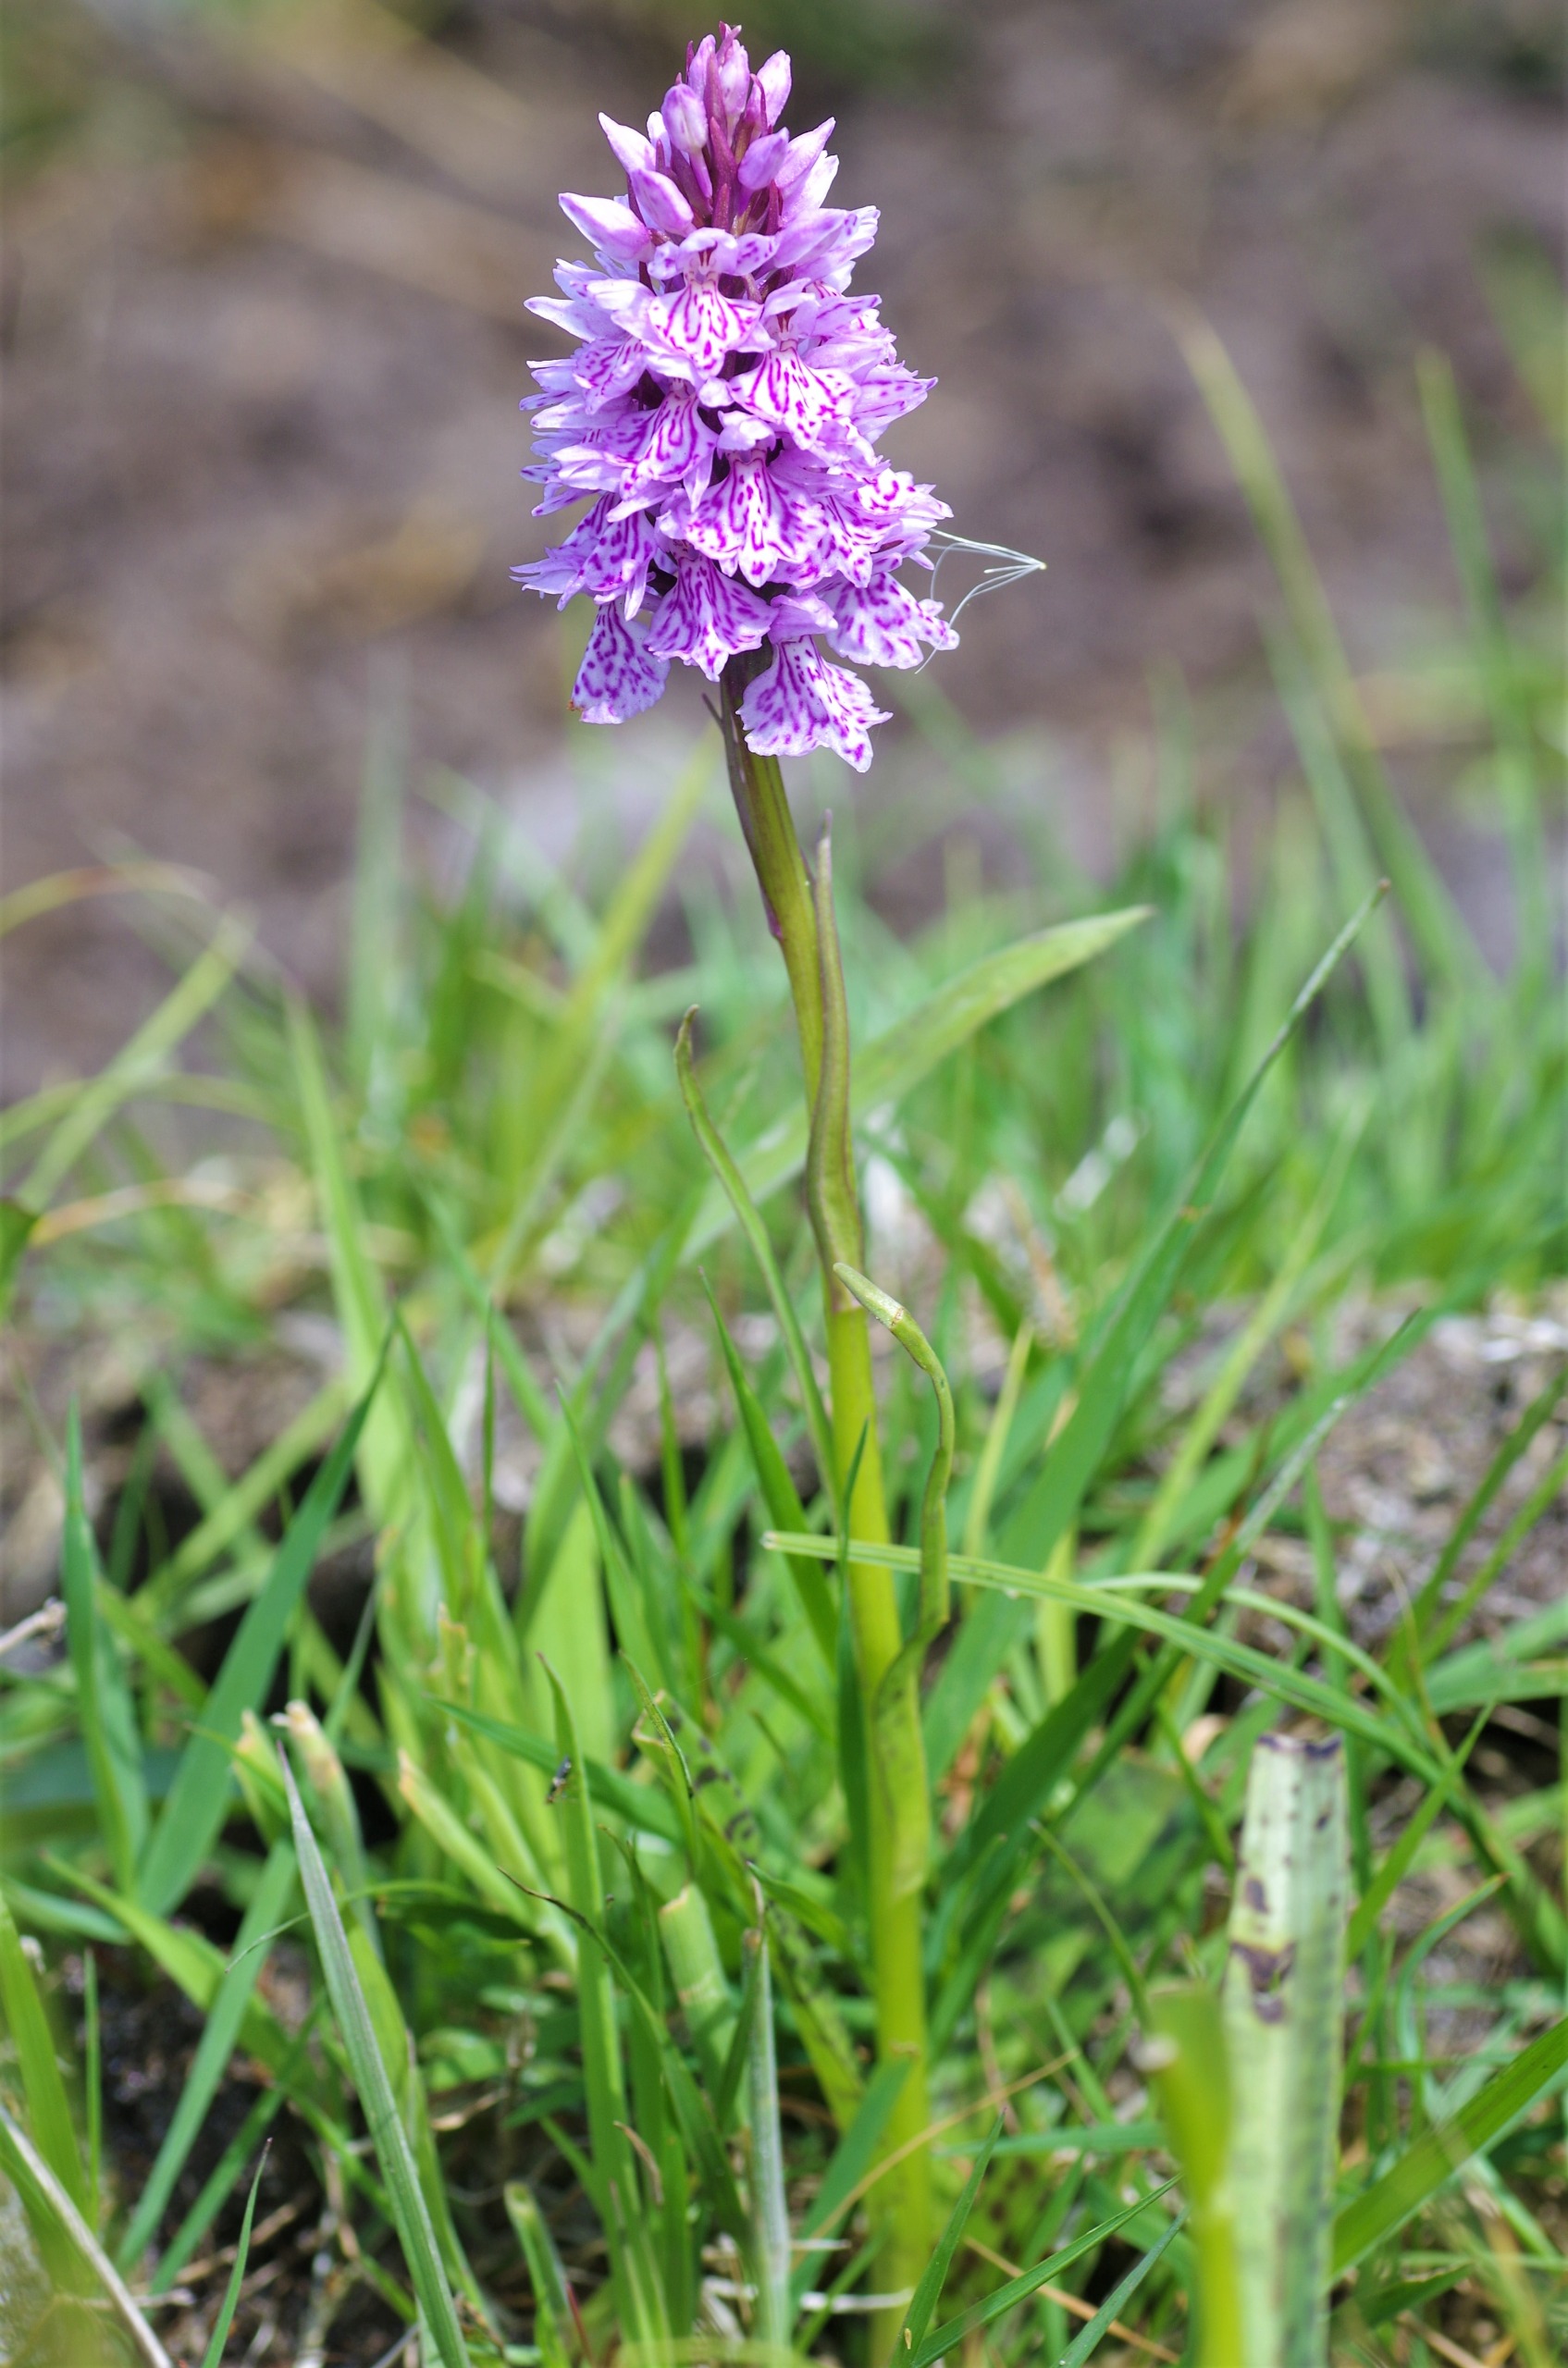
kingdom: Plantae
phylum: Tracheophyta
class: Liliopsida
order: Asparagales
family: Orchidaceae
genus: Dactylorhiza
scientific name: Dactylorhiza maculata
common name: Plettet gøgeurt
